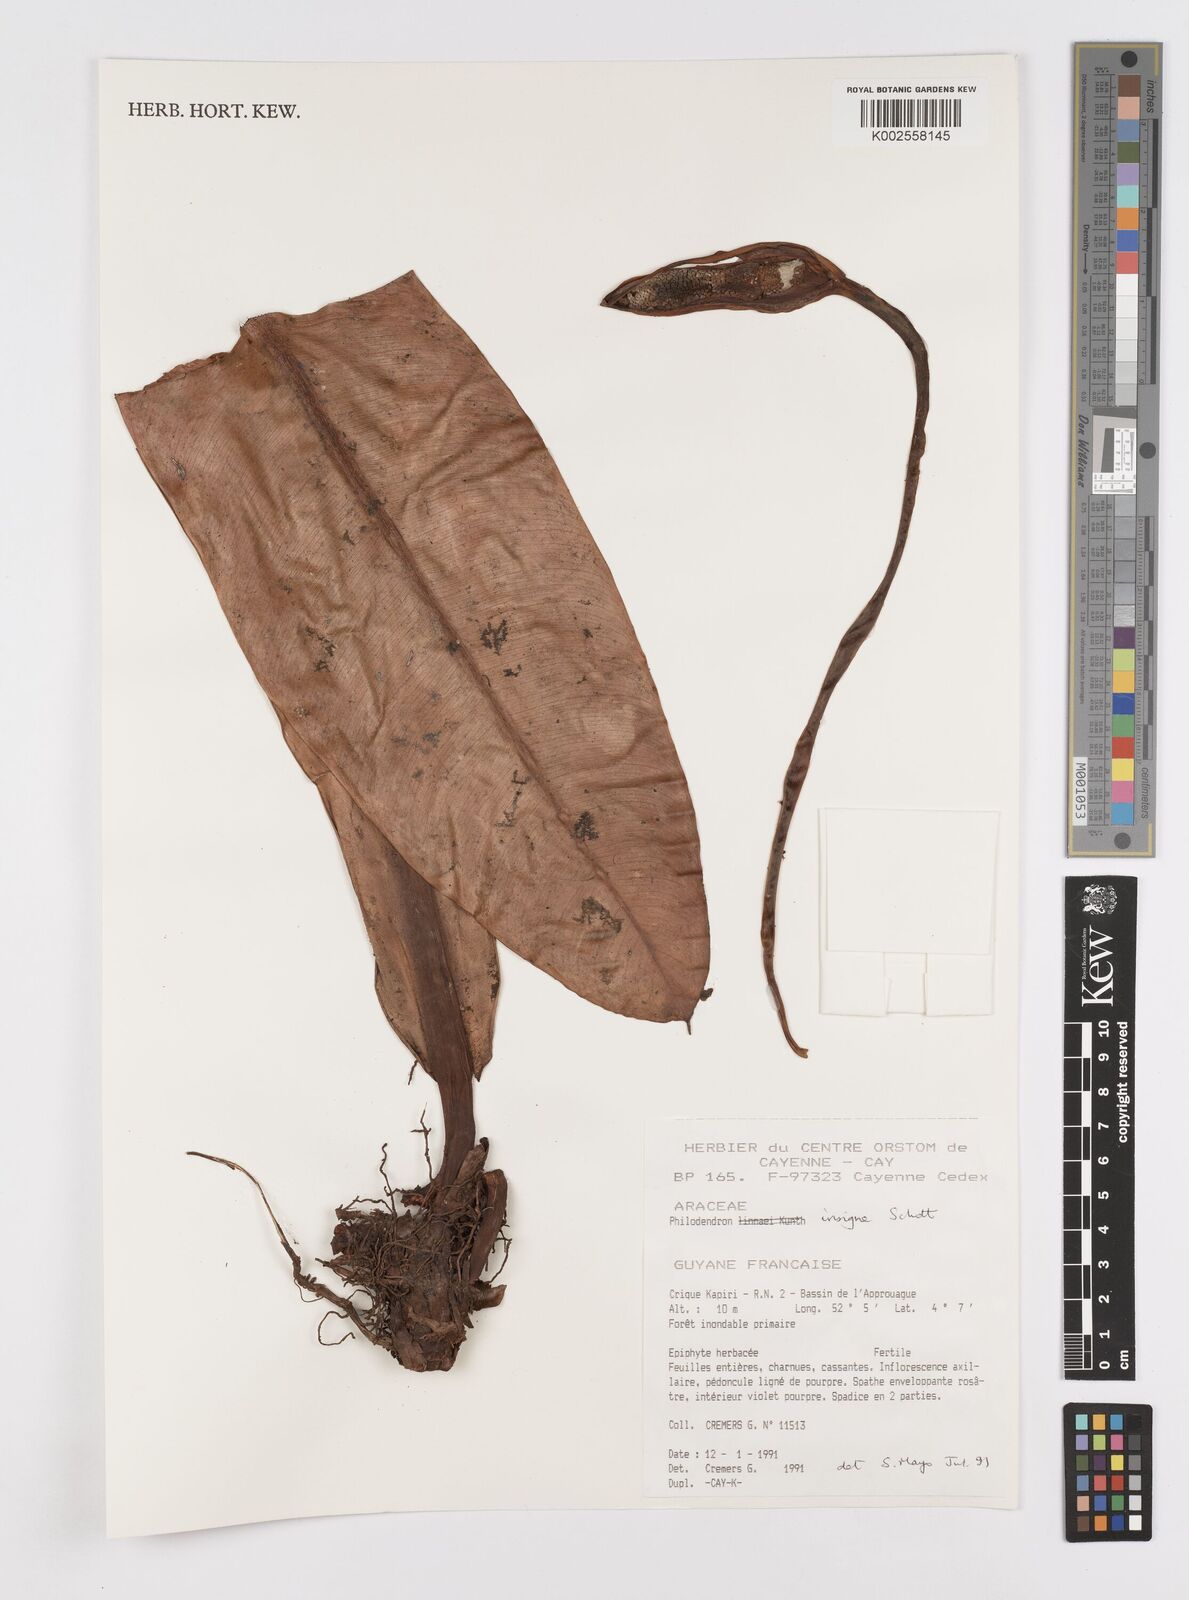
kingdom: Plantae
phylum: Tracheophyta
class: Liliopsida
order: Alismatales
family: Araceae
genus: Philodendron
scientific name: Philodendron insigne
